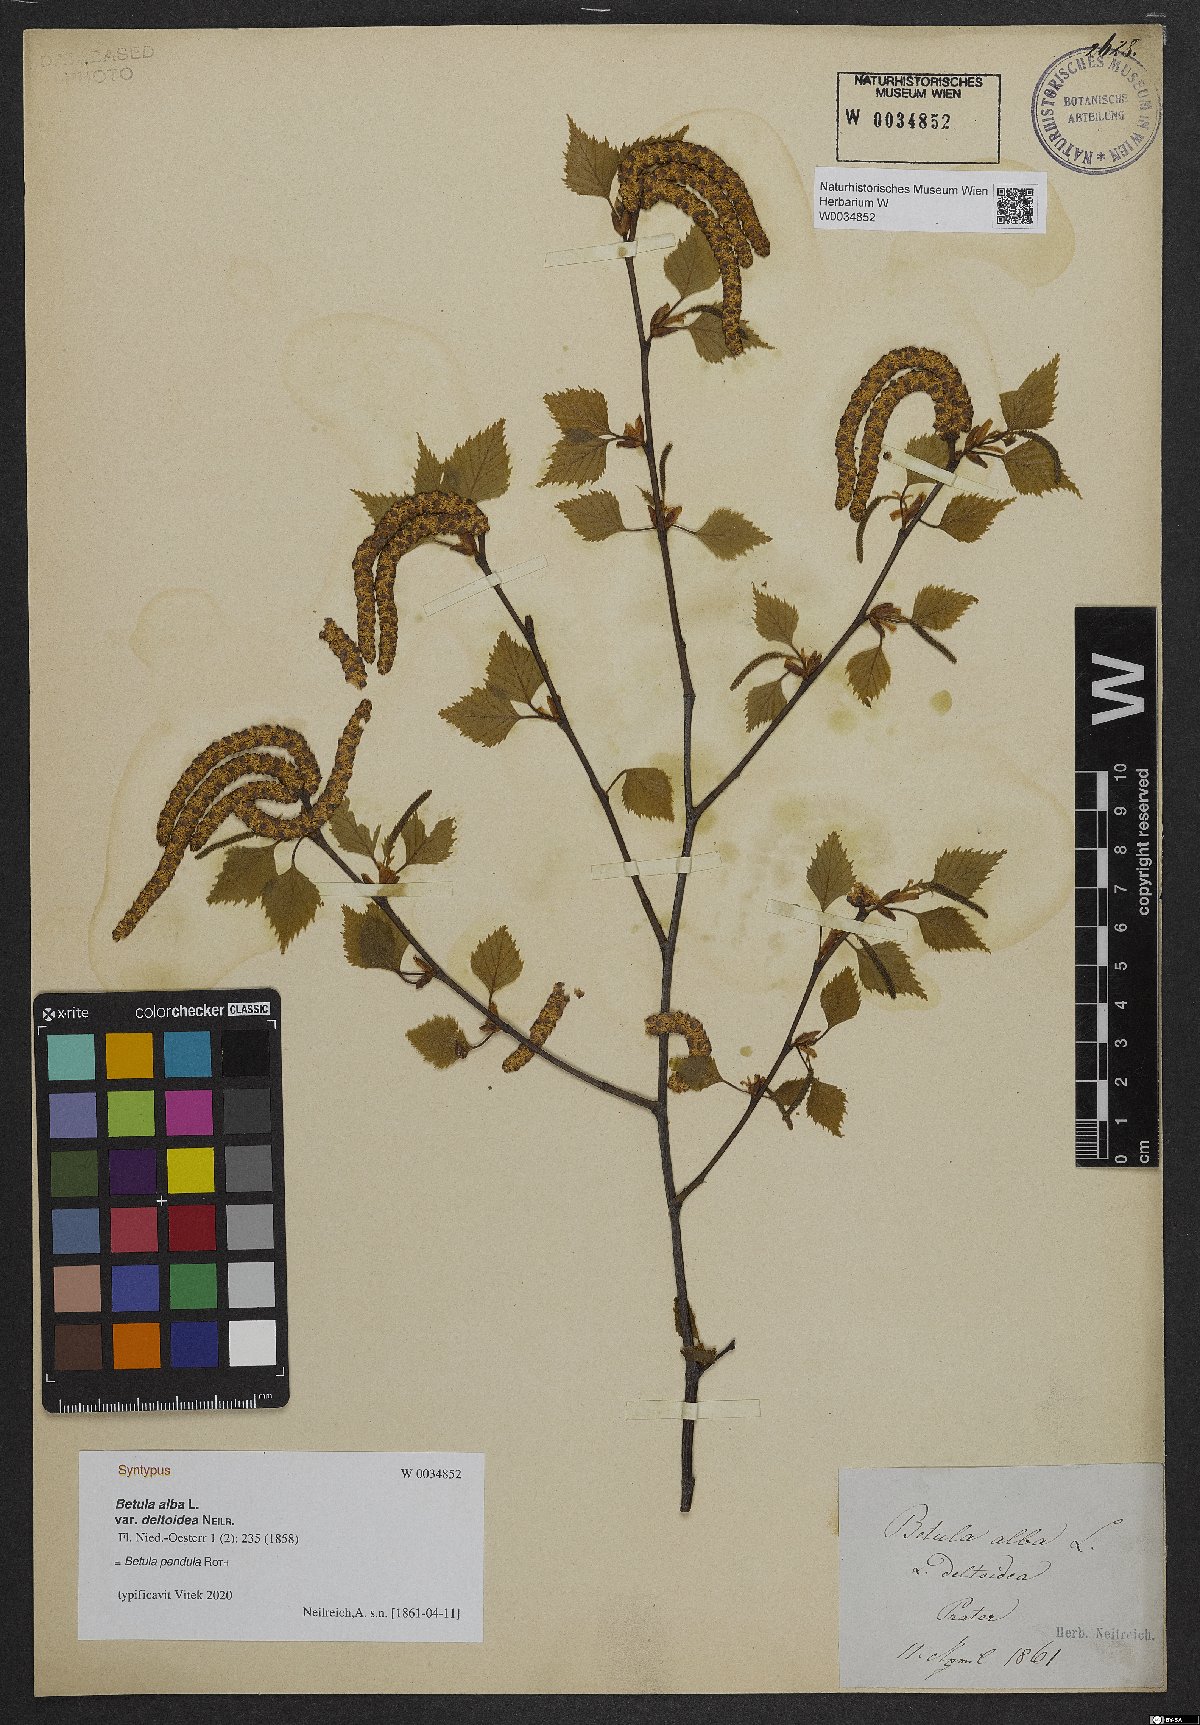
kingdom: Plantae
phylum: Tracheophyta
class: Magnoliopsida
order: Fagales
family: Betulaceae
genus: Betula
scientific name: Betula pubescens
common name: Downy birch
